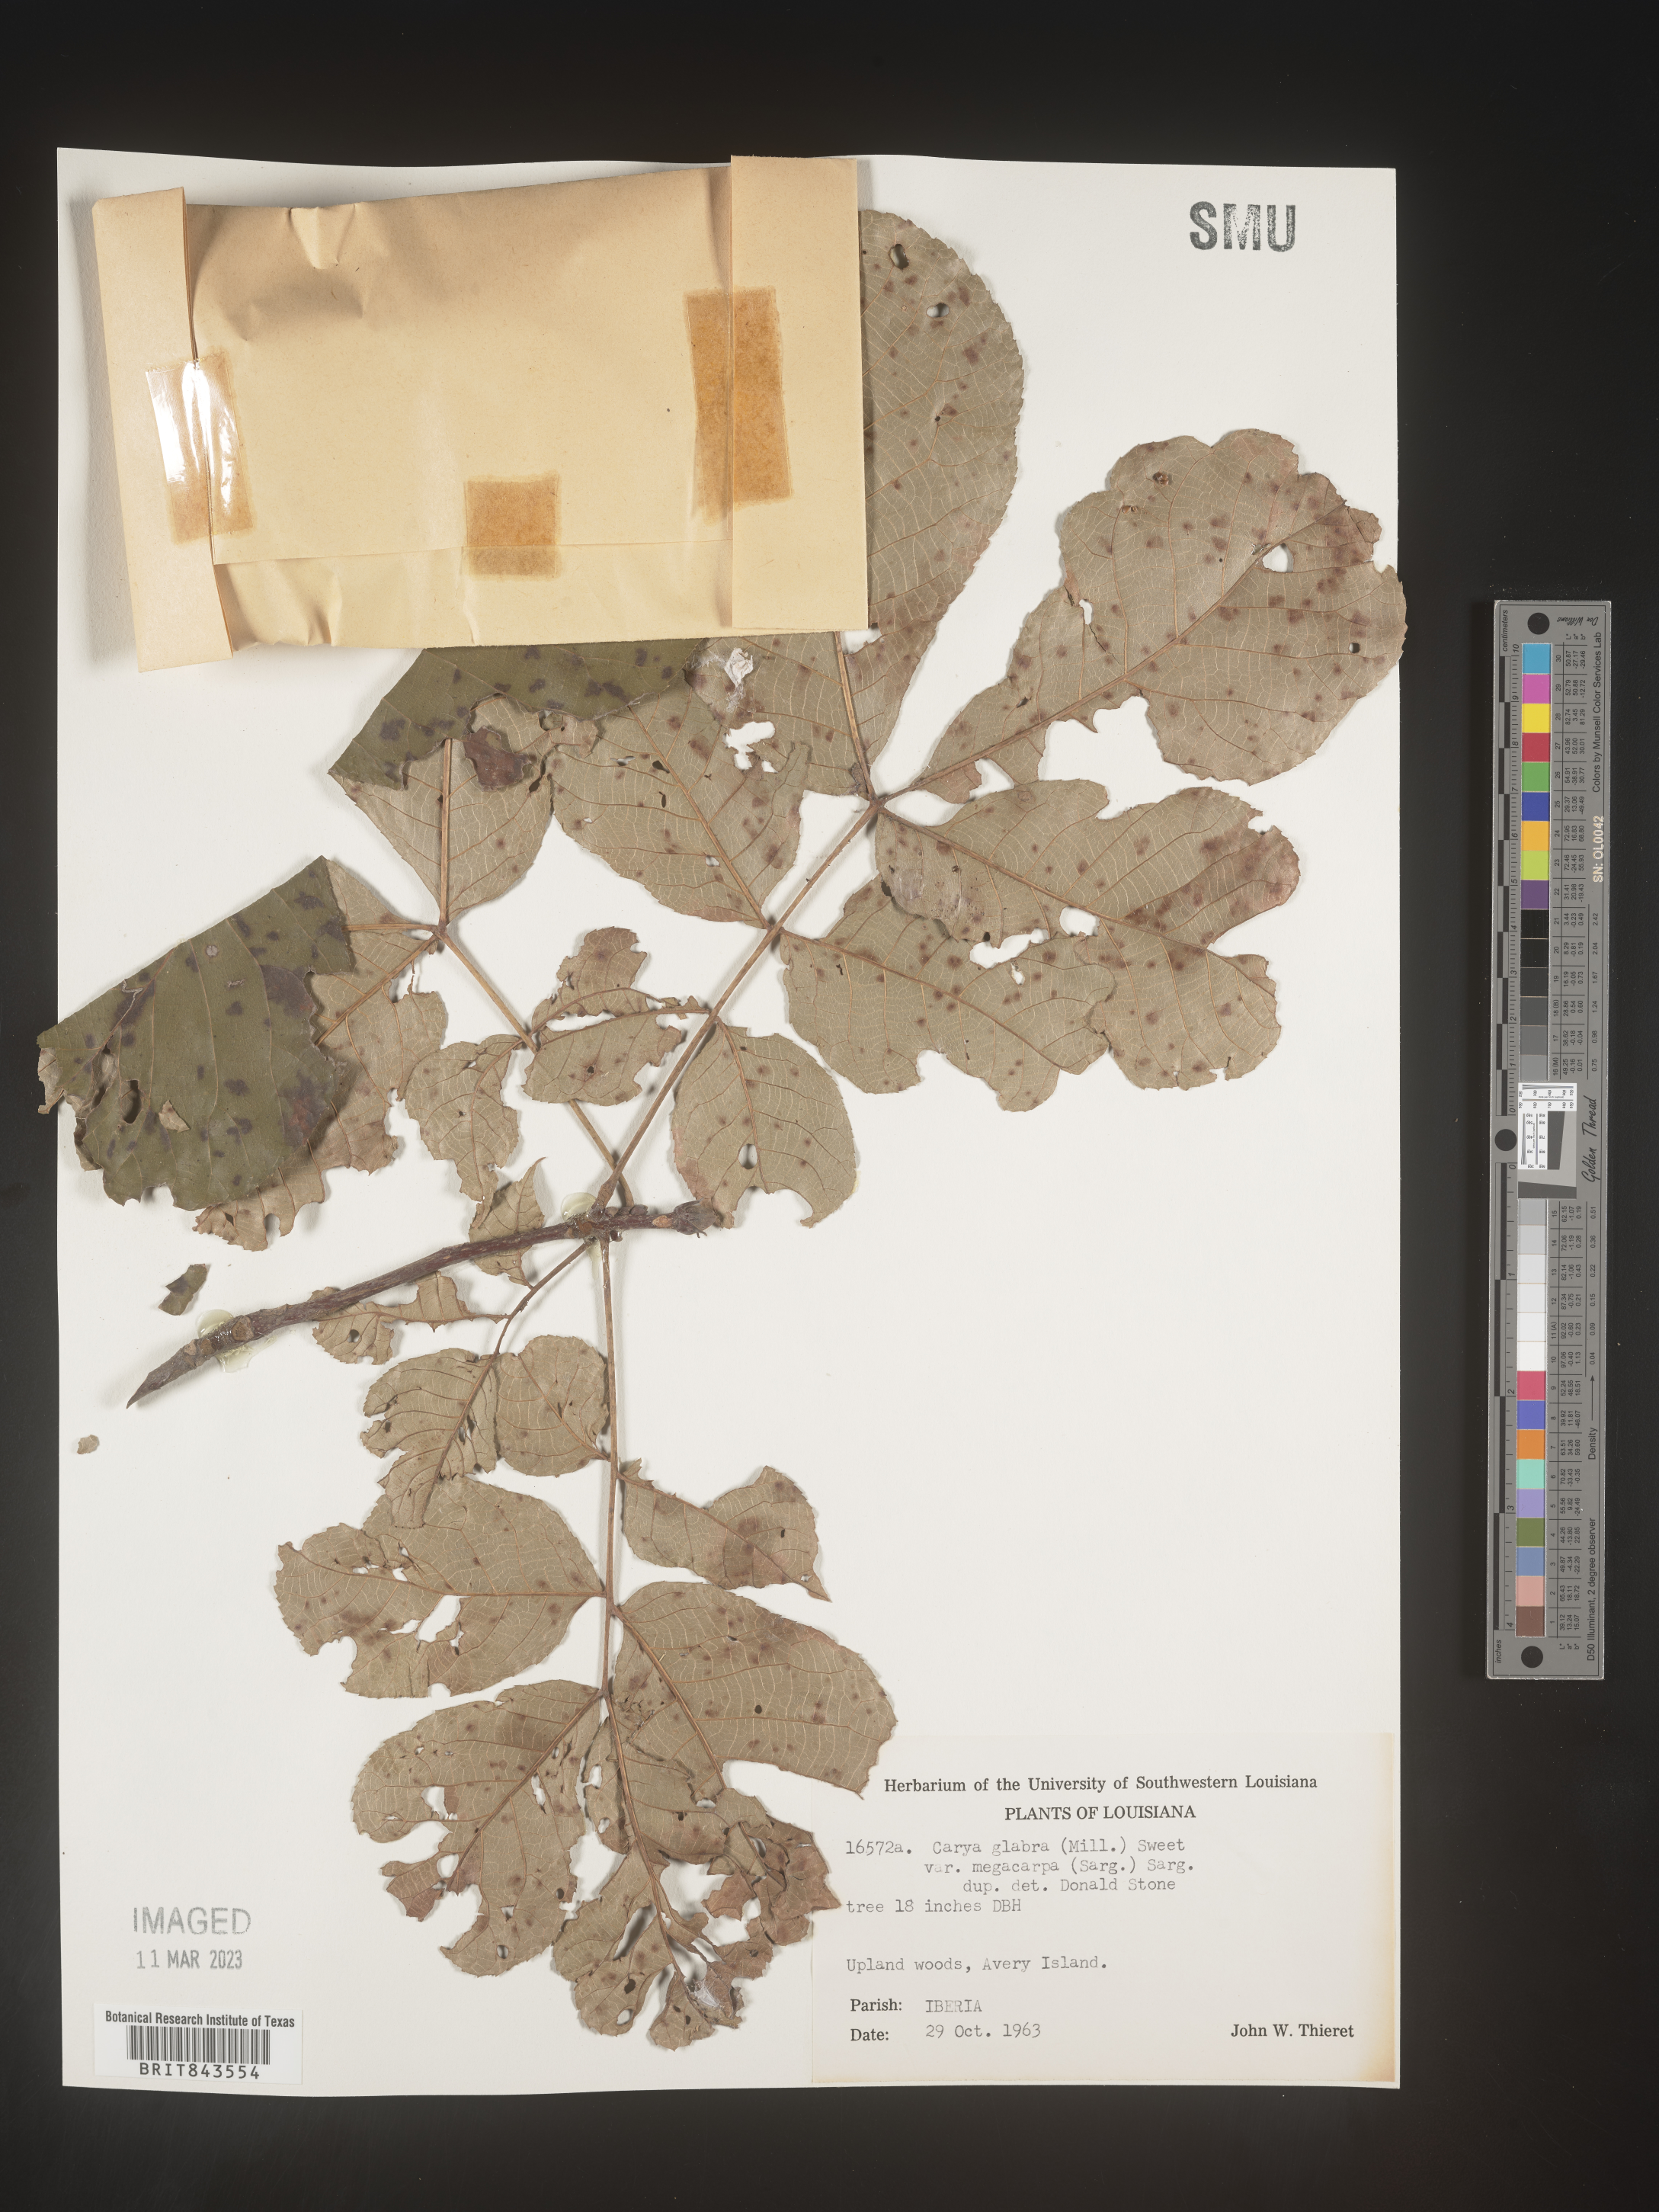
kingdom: Plantae
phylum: Tracheophyta
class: Magnoliopsida
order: Fagales
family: Juglandaceae
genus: Carya
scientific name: Carya glabra
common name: Pignut hickory
